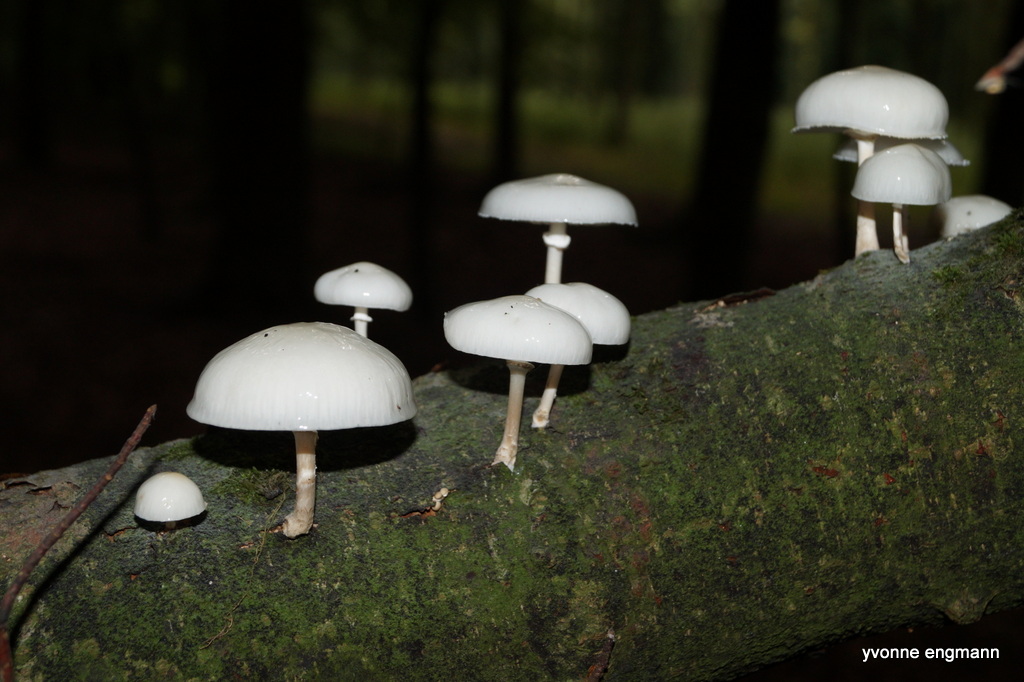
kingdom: Fungi
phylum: Basidiomycota
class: Agaricomycetes
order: Agaricales
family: Physalacriaceae
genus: Mucidula
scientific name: Mucidula mucida
